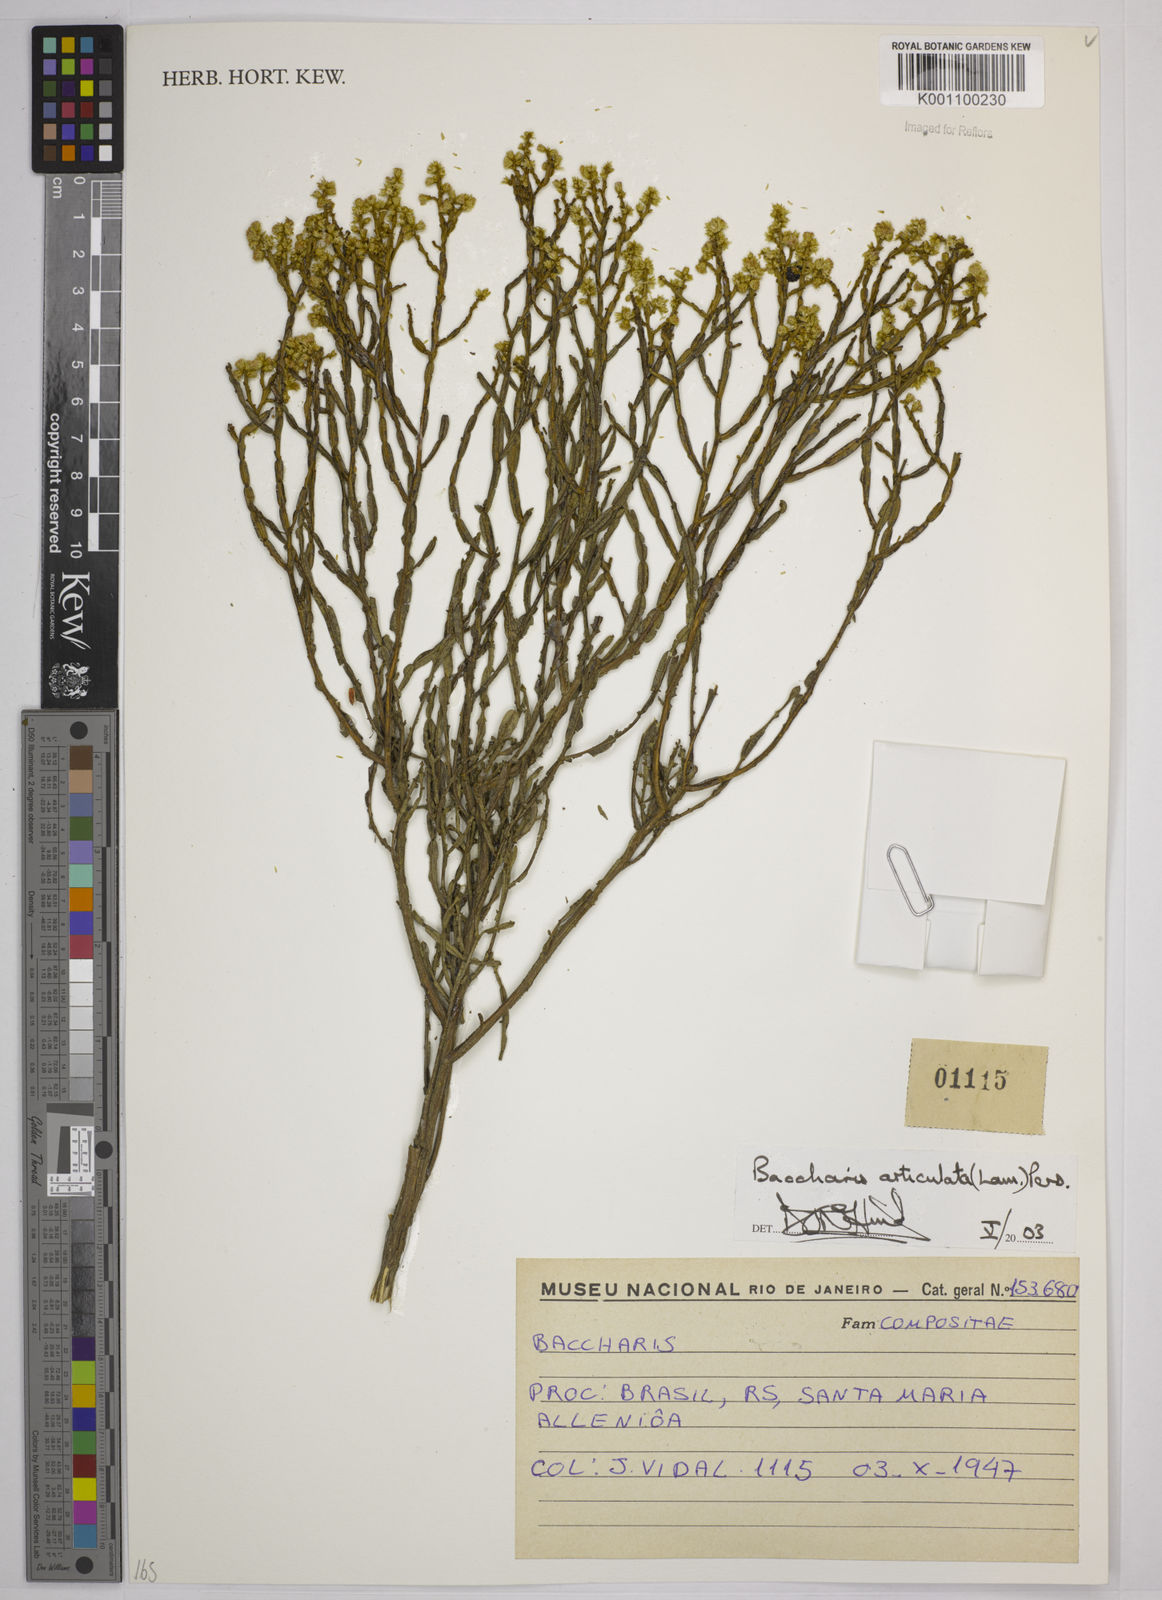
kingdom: Plantae
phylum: Tracheophyta
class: Magnoliopsida
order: Asterales
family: Asteraceae
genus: Baccharis
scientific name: Baccharis
